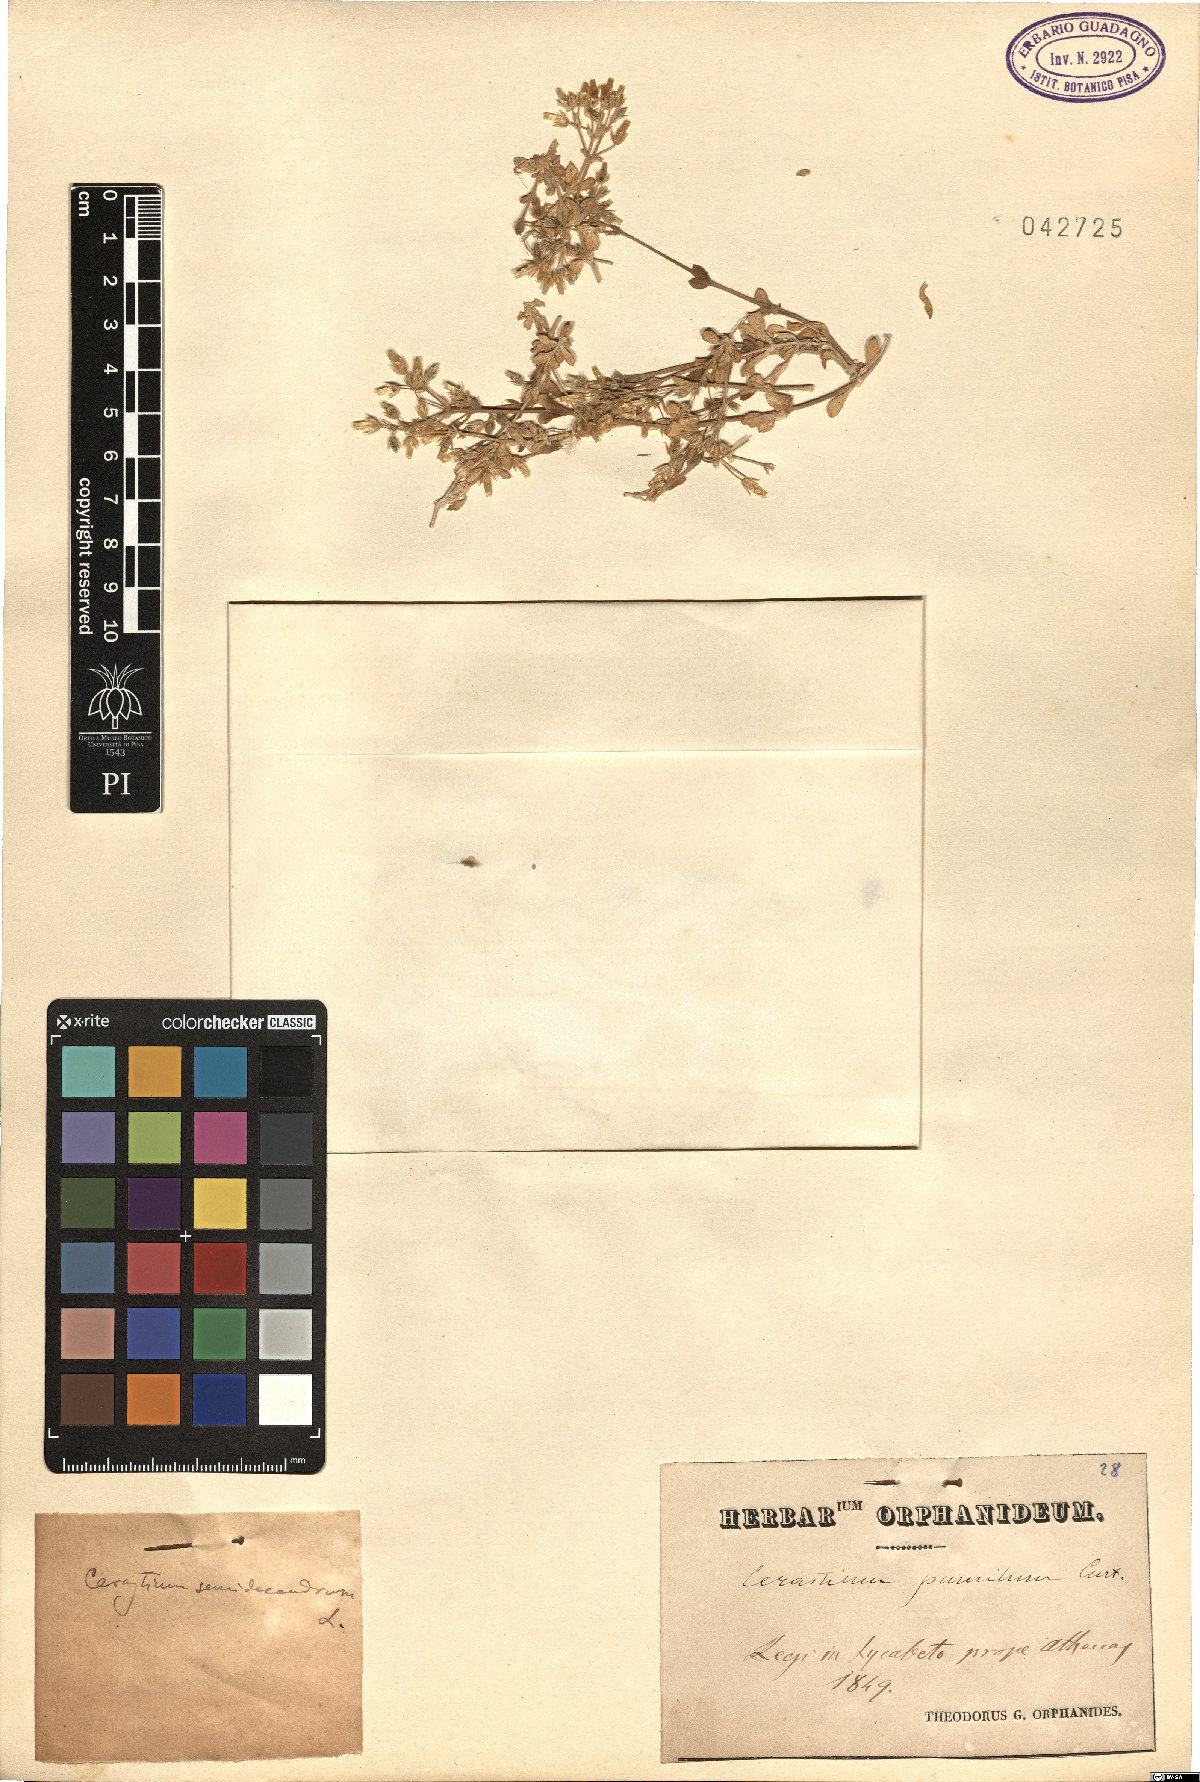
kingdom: Plantae
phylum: Tracheophyta
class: Magnoliopsida
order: Caryophyllales
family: Caryophyllaceae
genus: Cerastium
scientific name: Cerastium semidecandrum
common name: Little mouse-ear
